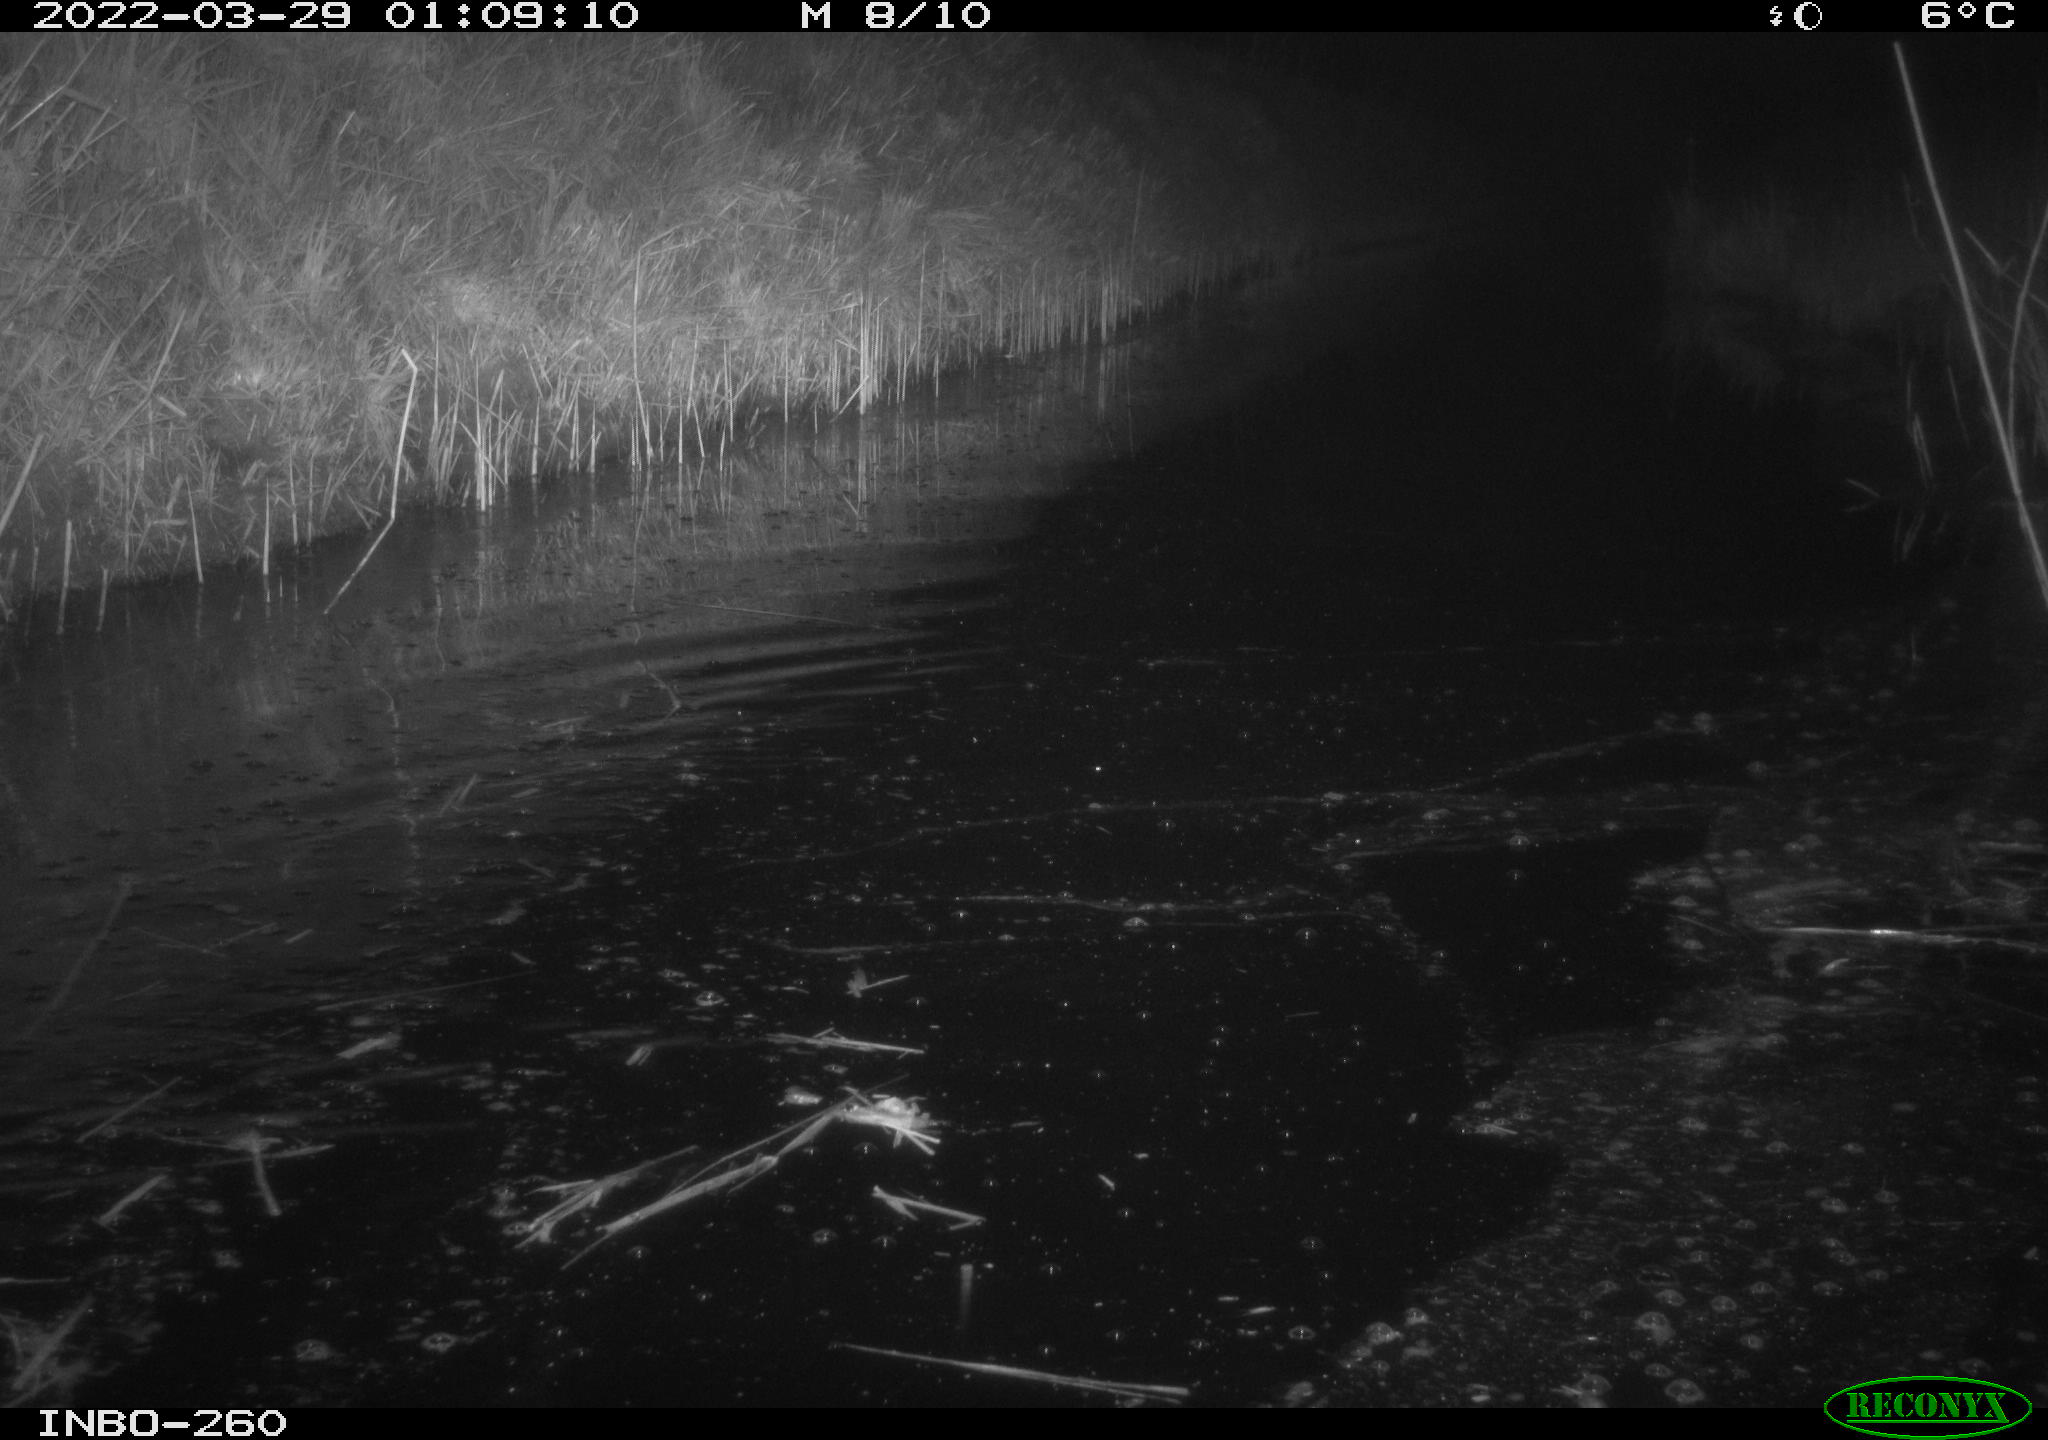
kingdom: Animalia
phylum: Chordata
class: Mammalia
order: Rodentia
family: Muridae
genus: Rattus
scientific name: Rattus norvegicus
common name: Brown rat
